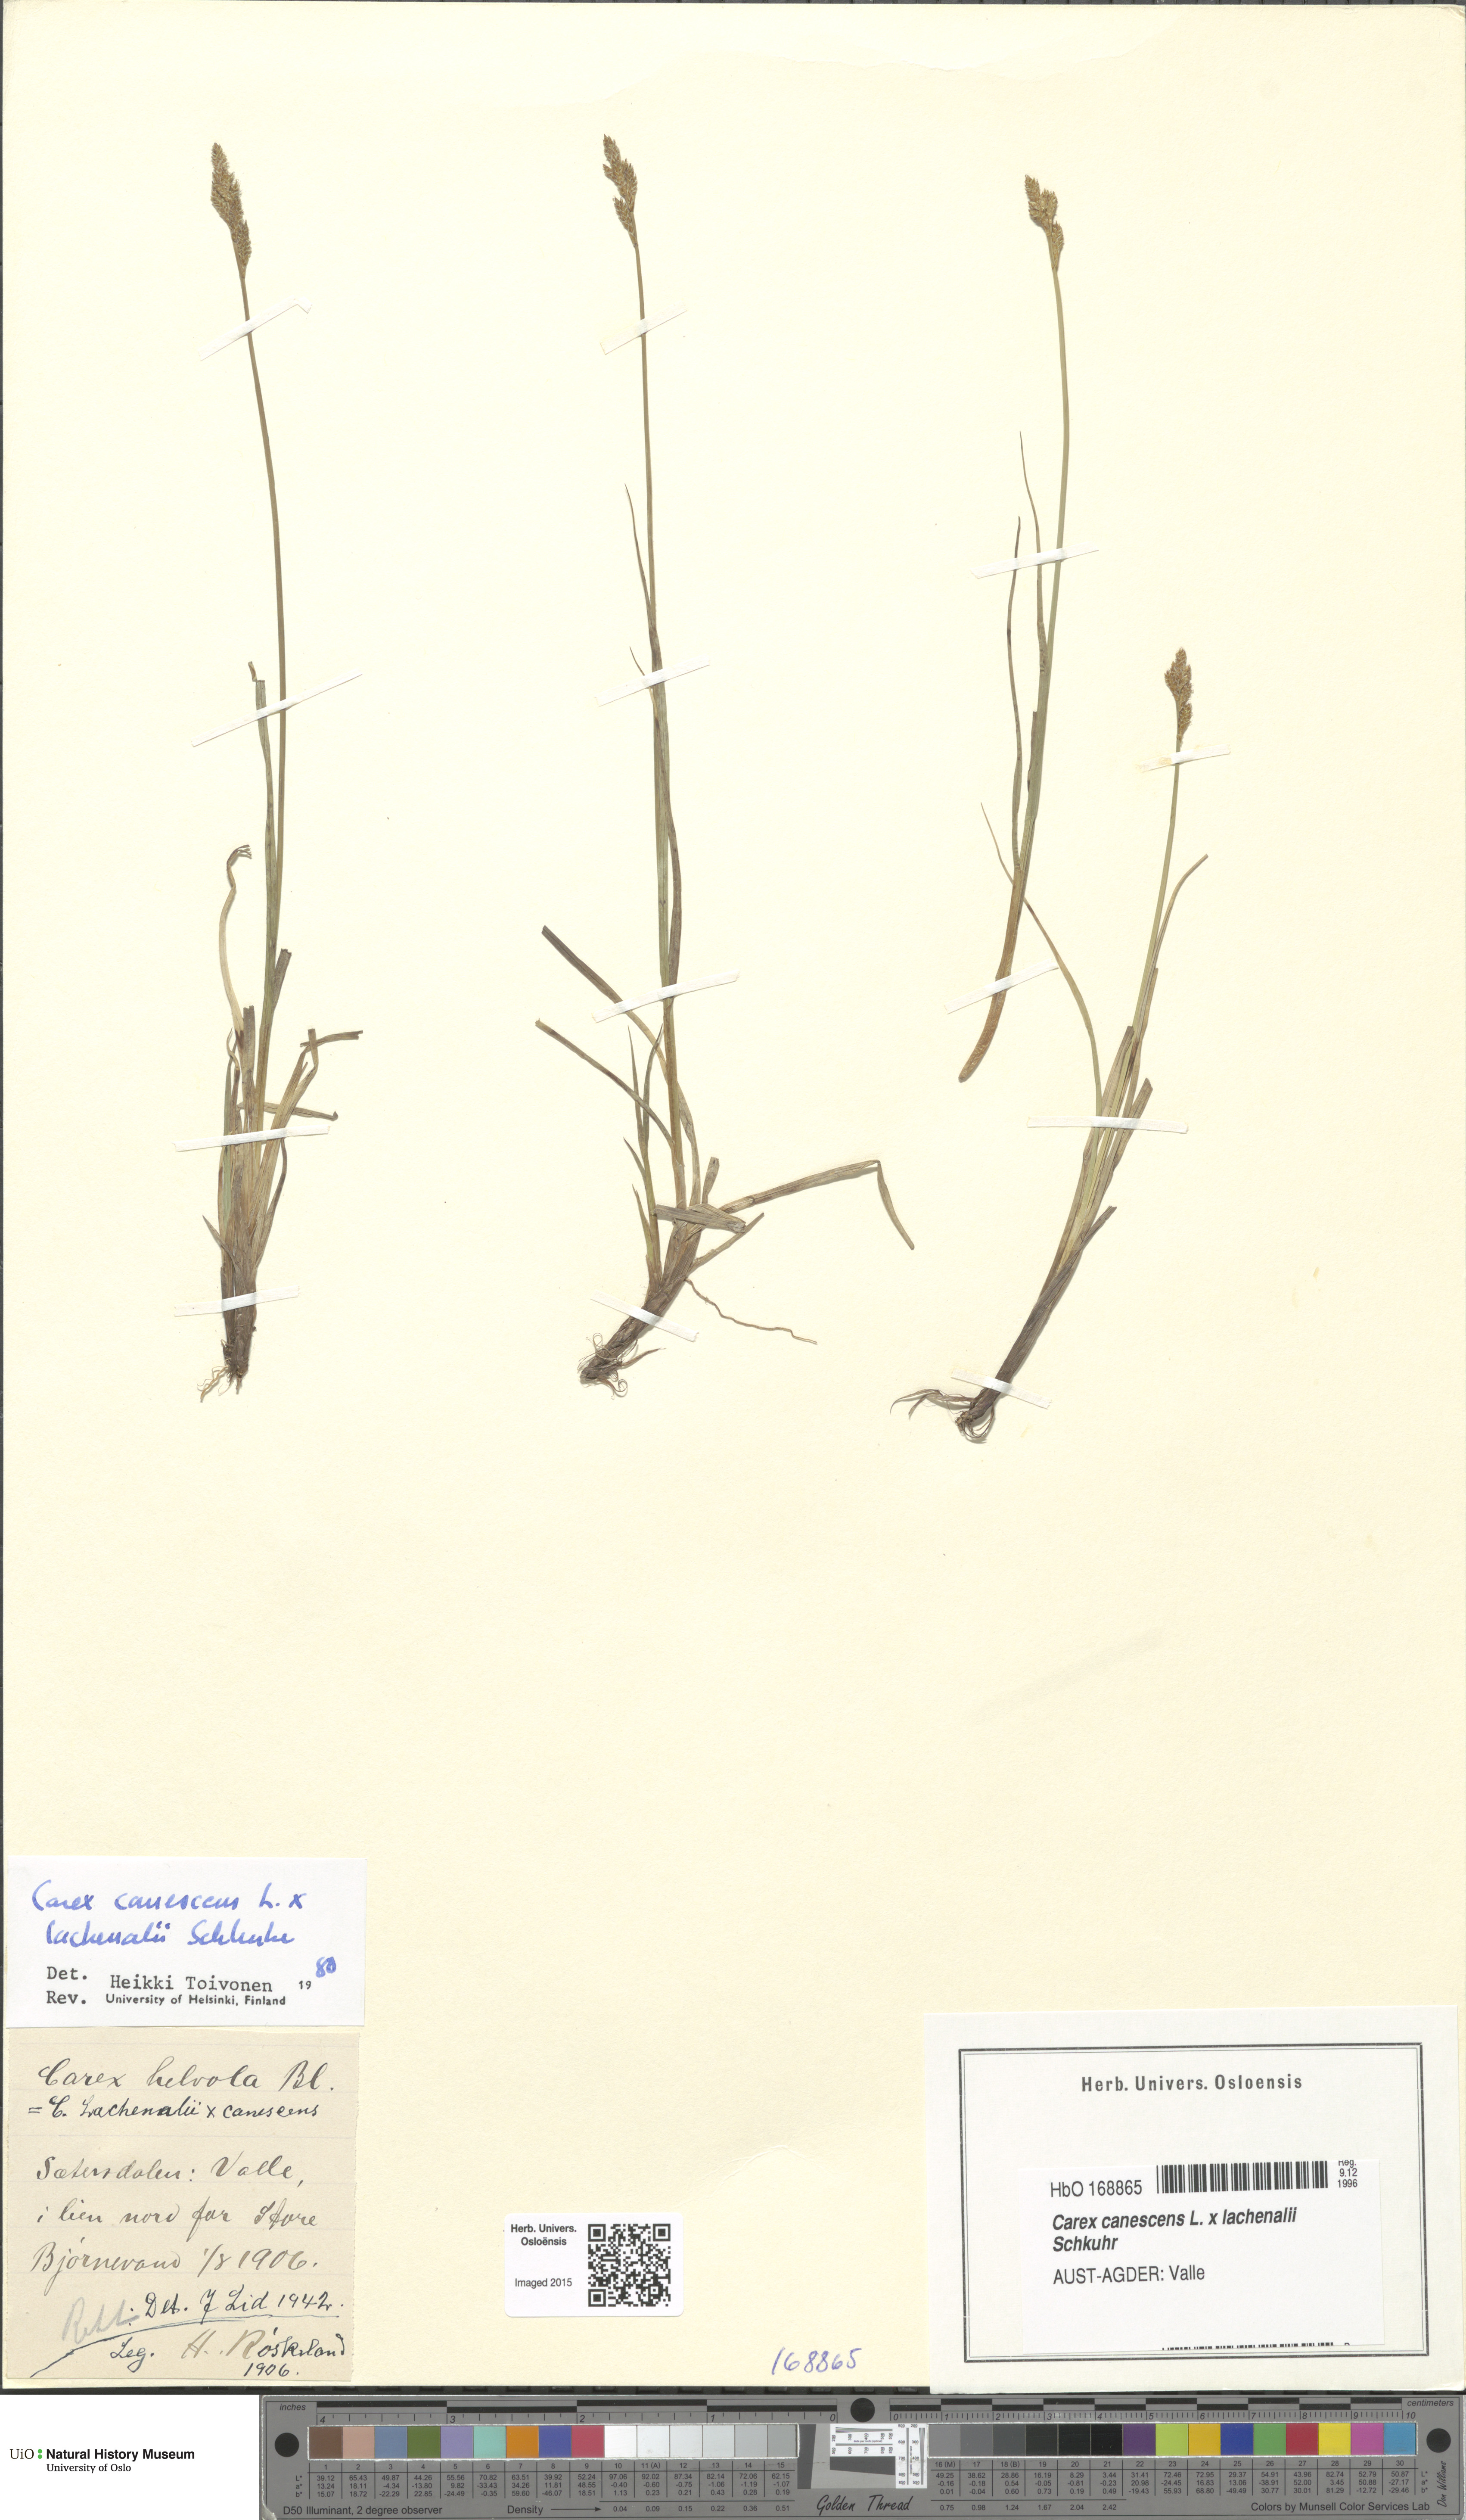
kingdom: Plantae
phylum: Tracheophyta
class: Liliopsida
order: Poales
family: Cyperaceae
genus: Carex
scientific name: Carex
